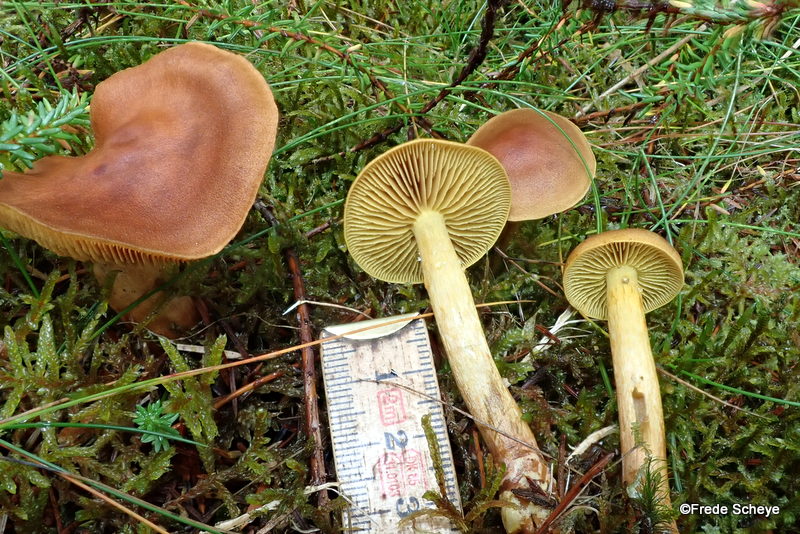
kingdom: Fungi
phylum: Basidiomycota
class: Agaricomycetes
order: Agaricales
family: Cortinariaceae
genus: Cortinarius
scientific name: Cortinarius
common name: gulbladet slørhat
